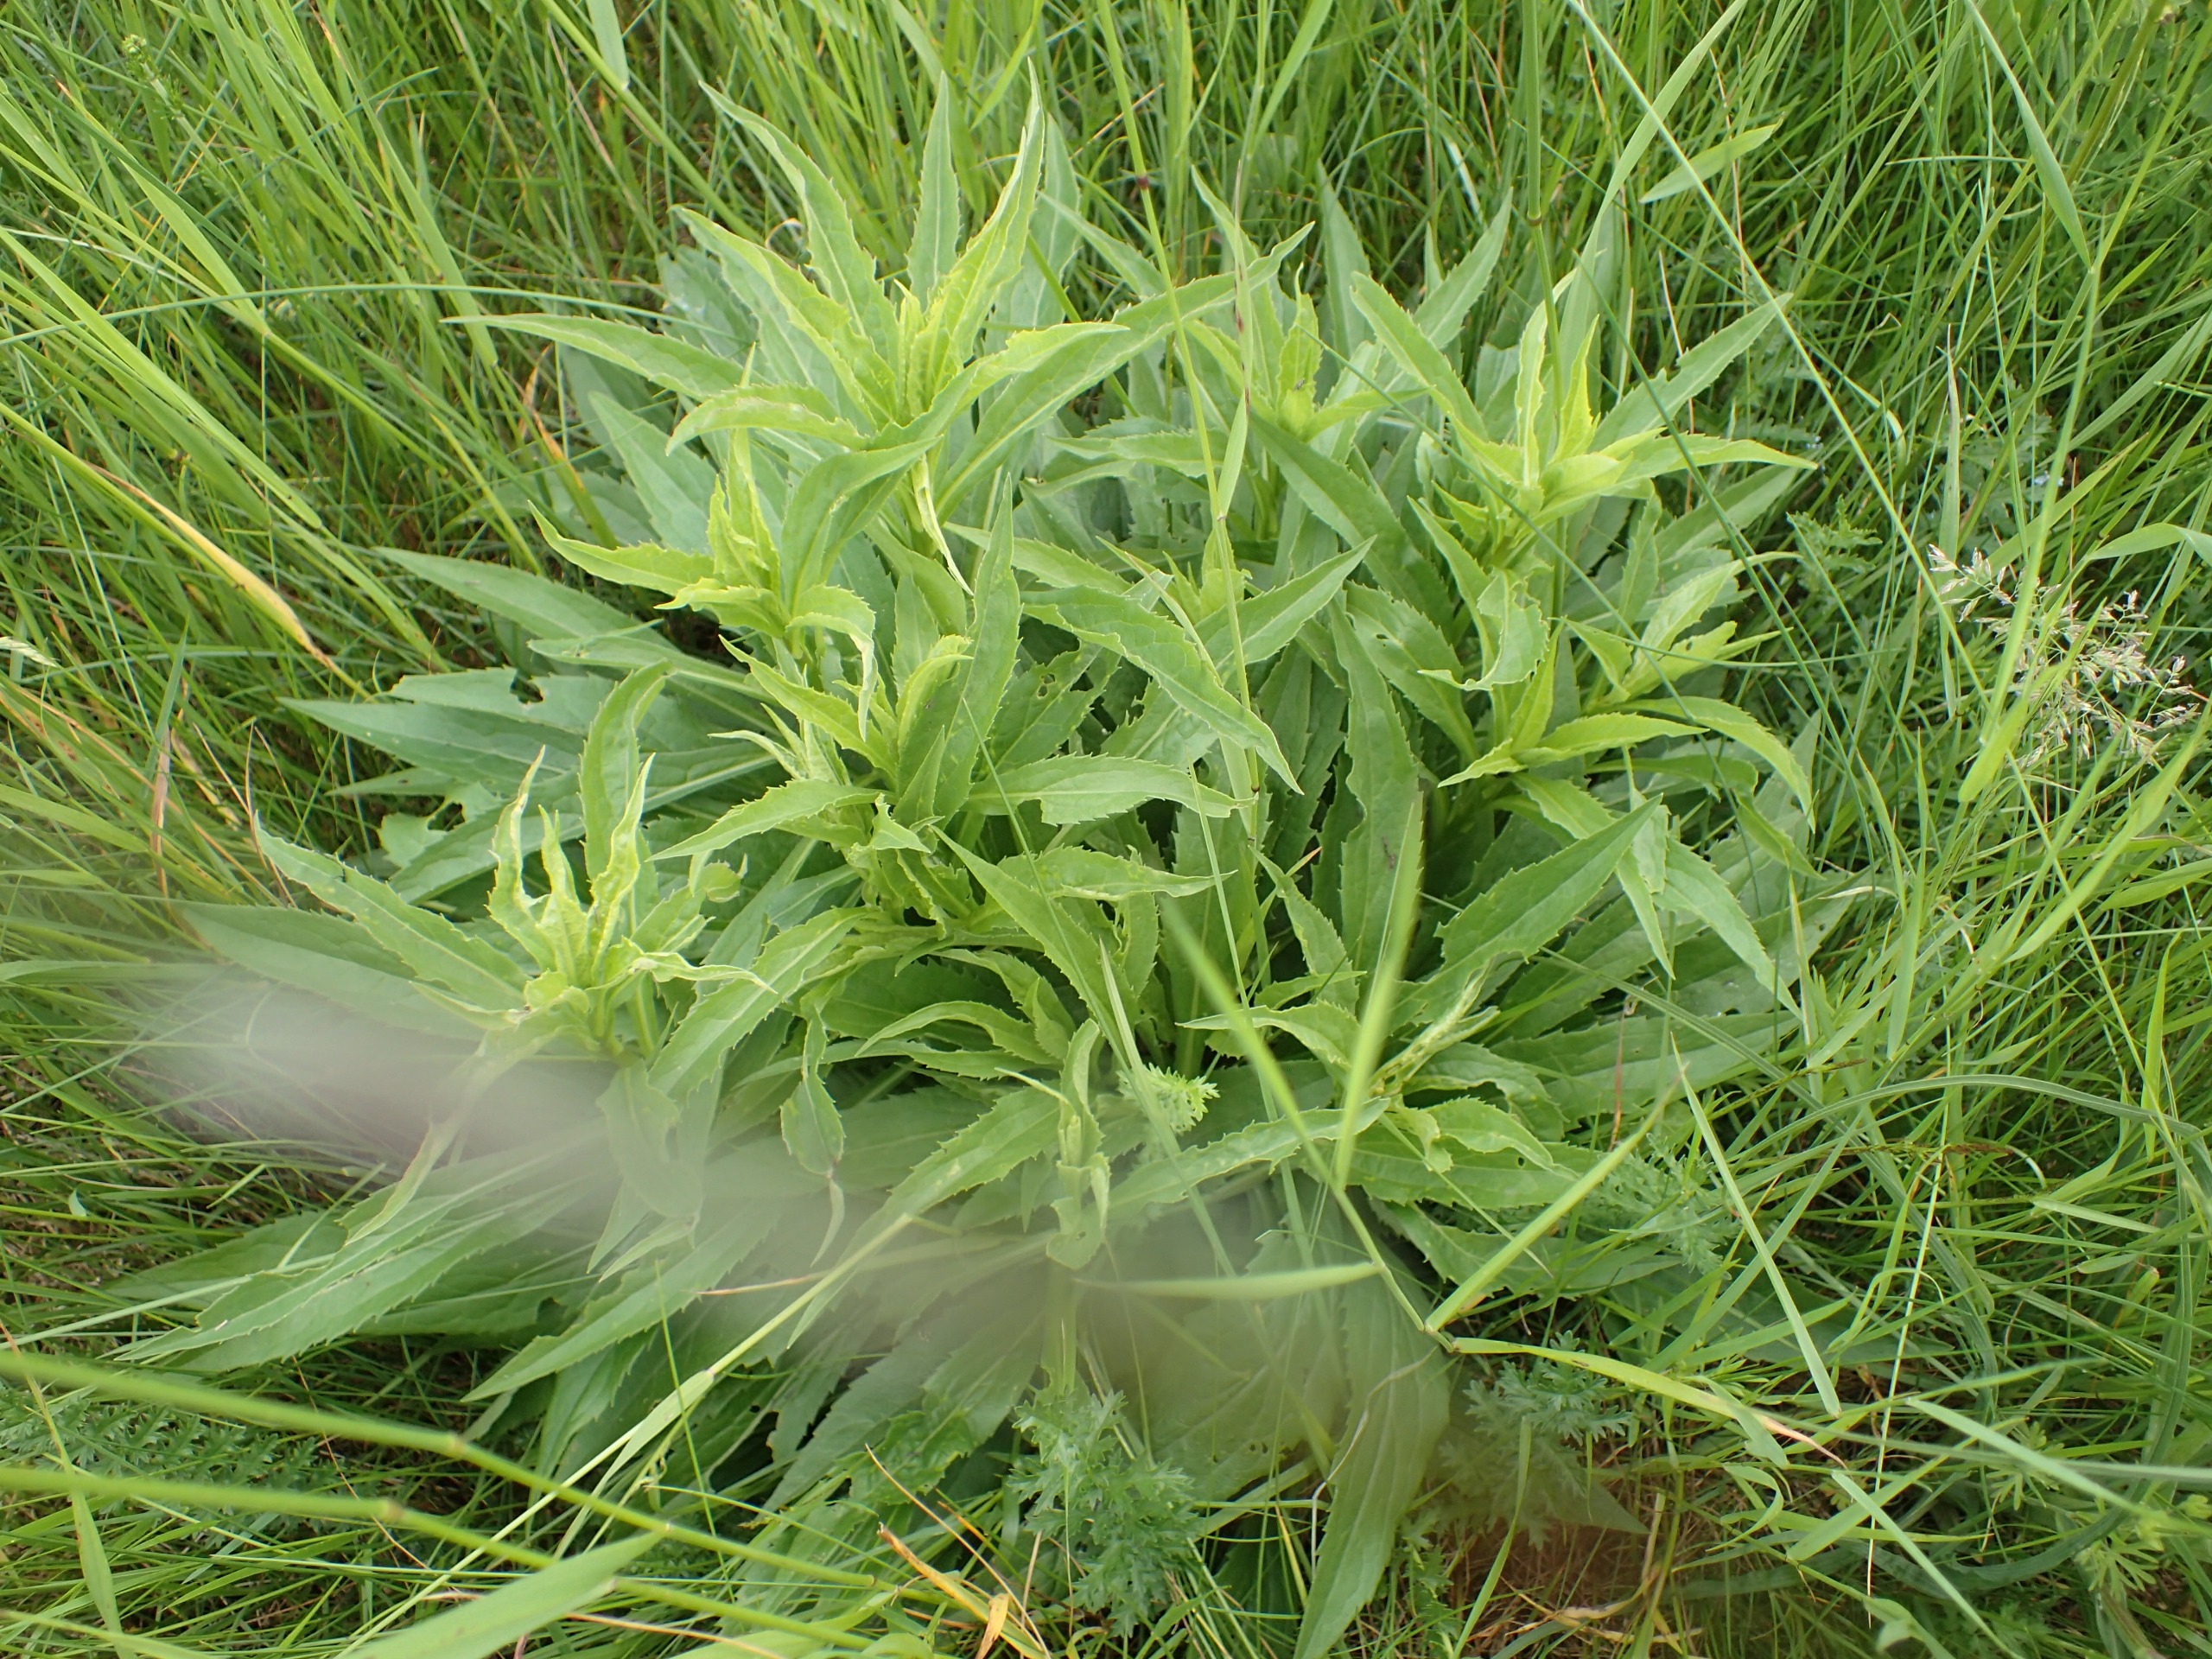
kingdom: Plantae
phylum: Tracheophyta
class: Magnoliopsida
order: Asterales
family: Asteraceae
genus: Solidago
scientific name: Solidago virgaurea
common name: Almindelig gyldenris
